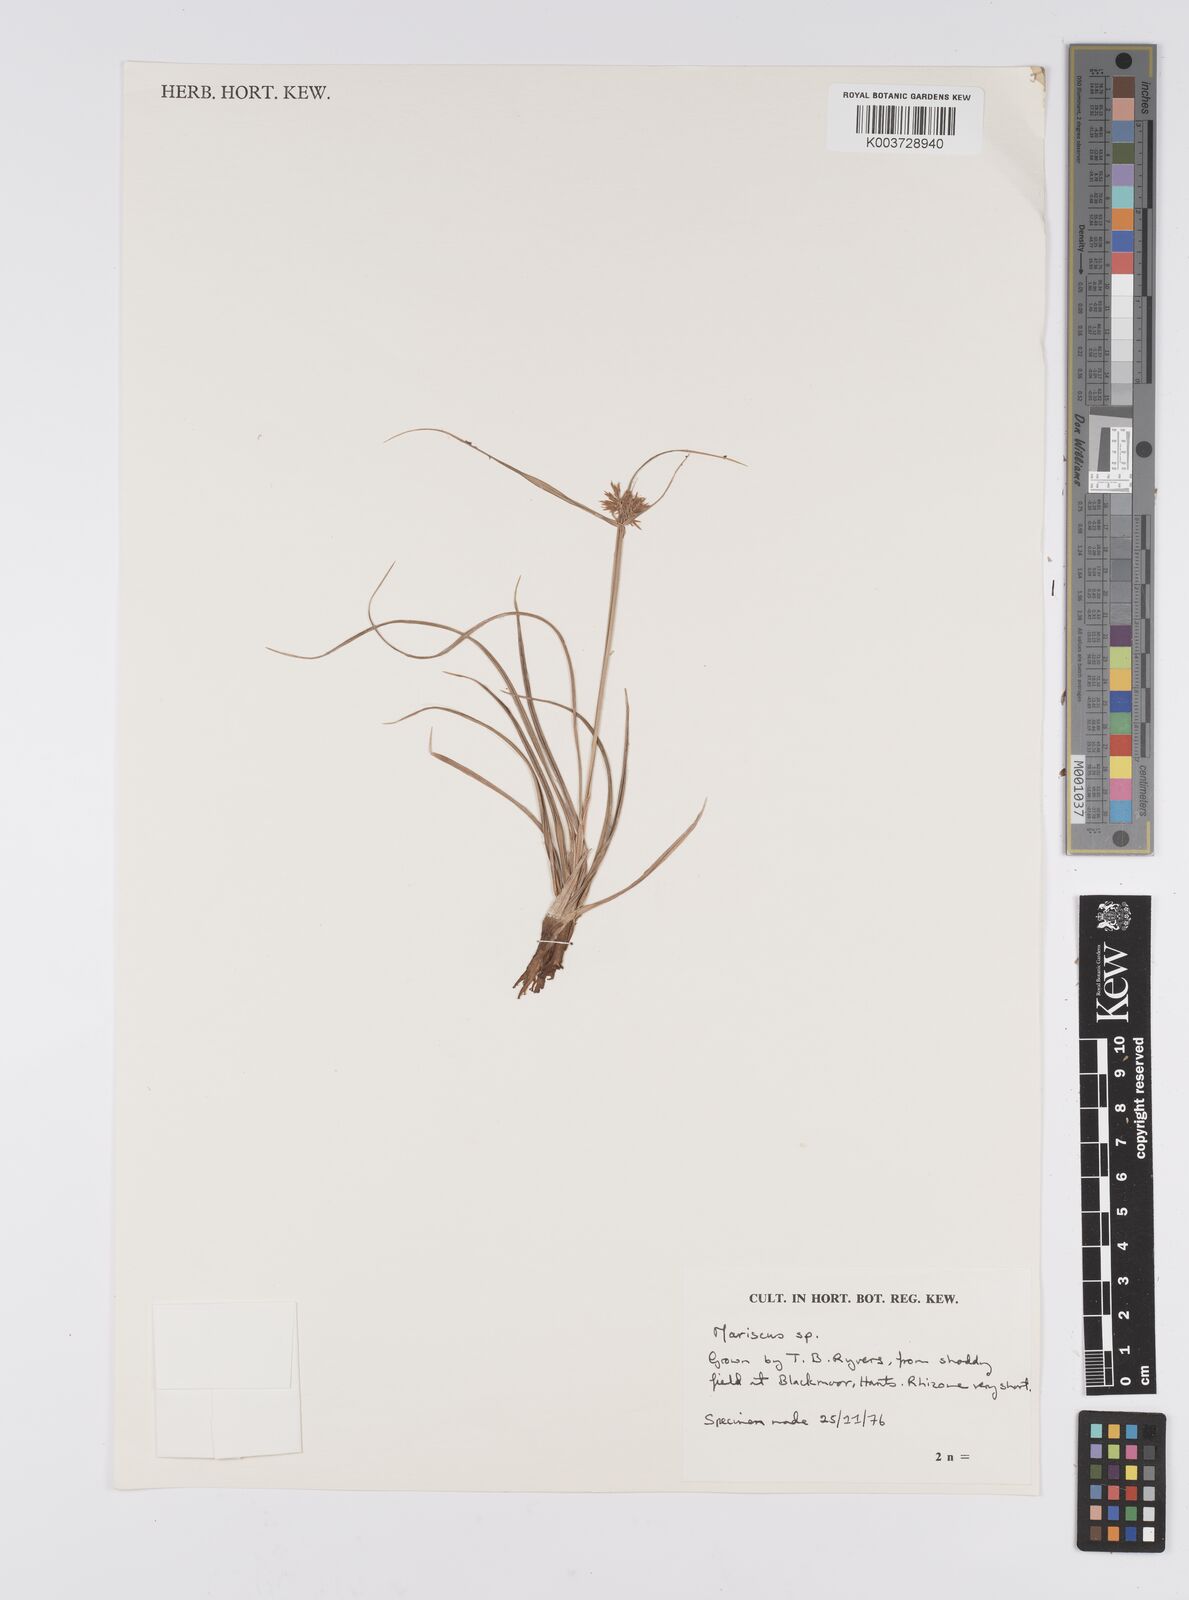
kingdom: Plantae
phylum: Tracheophyta
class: Liliopsida
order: Poales
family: Cyperaceae
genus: Cyperus
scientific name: Cyperus
